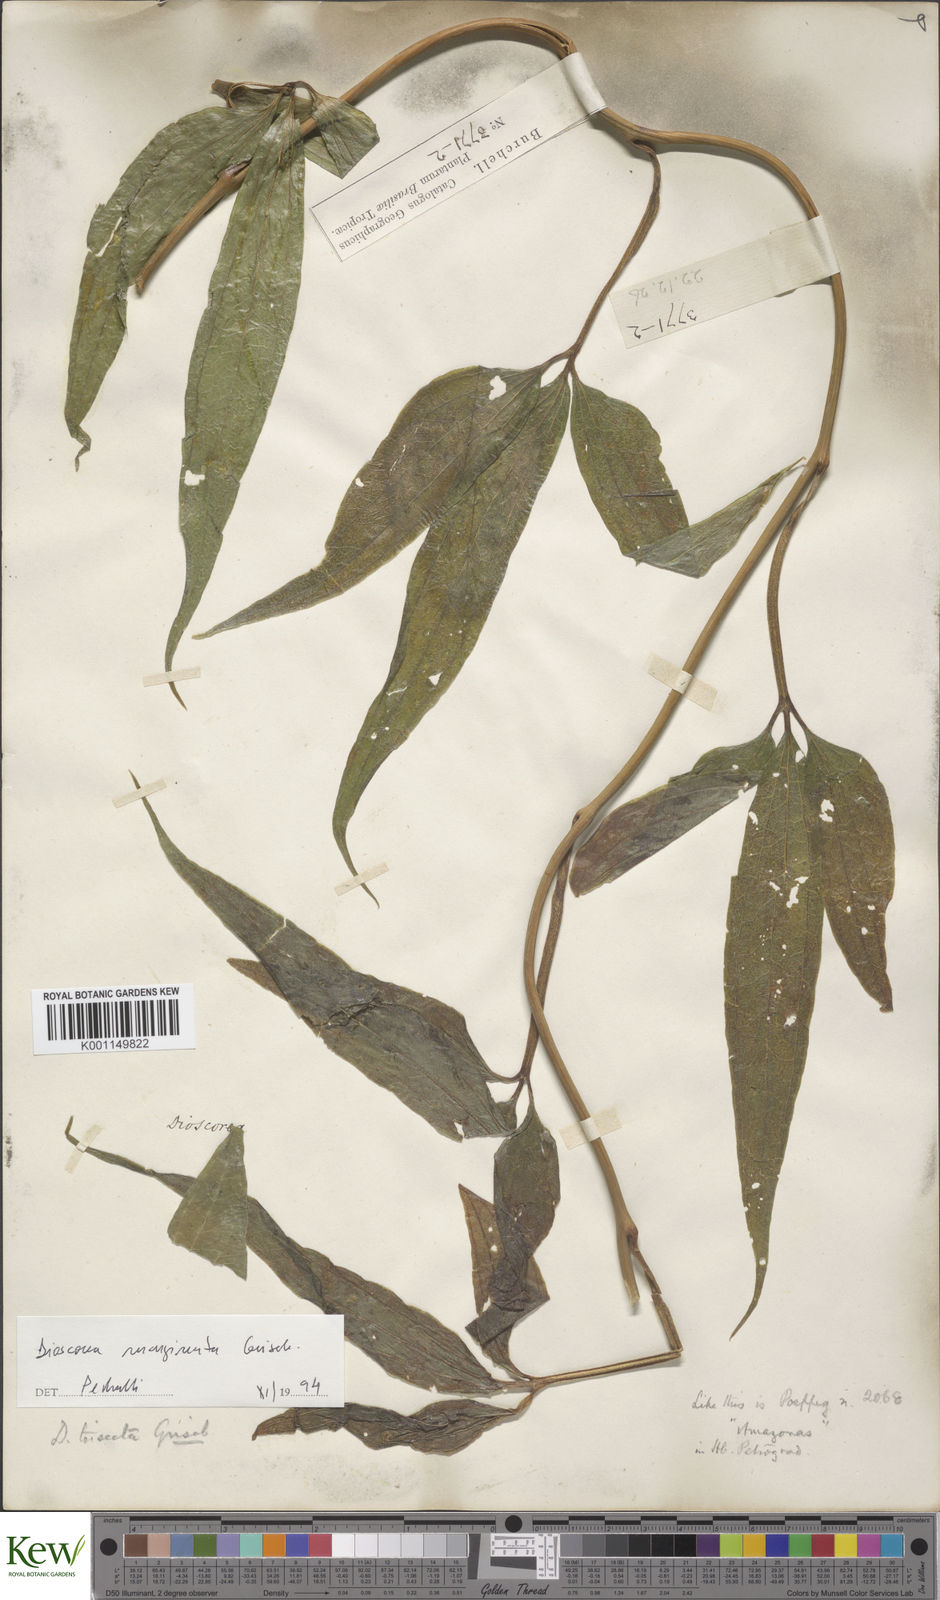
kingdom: Plantae
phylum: Tracheophyta
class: Liliopsida
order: Dioscoreales
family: Dioscoreaceae
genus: Dioscorea
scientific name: Dioscorea trisecta
